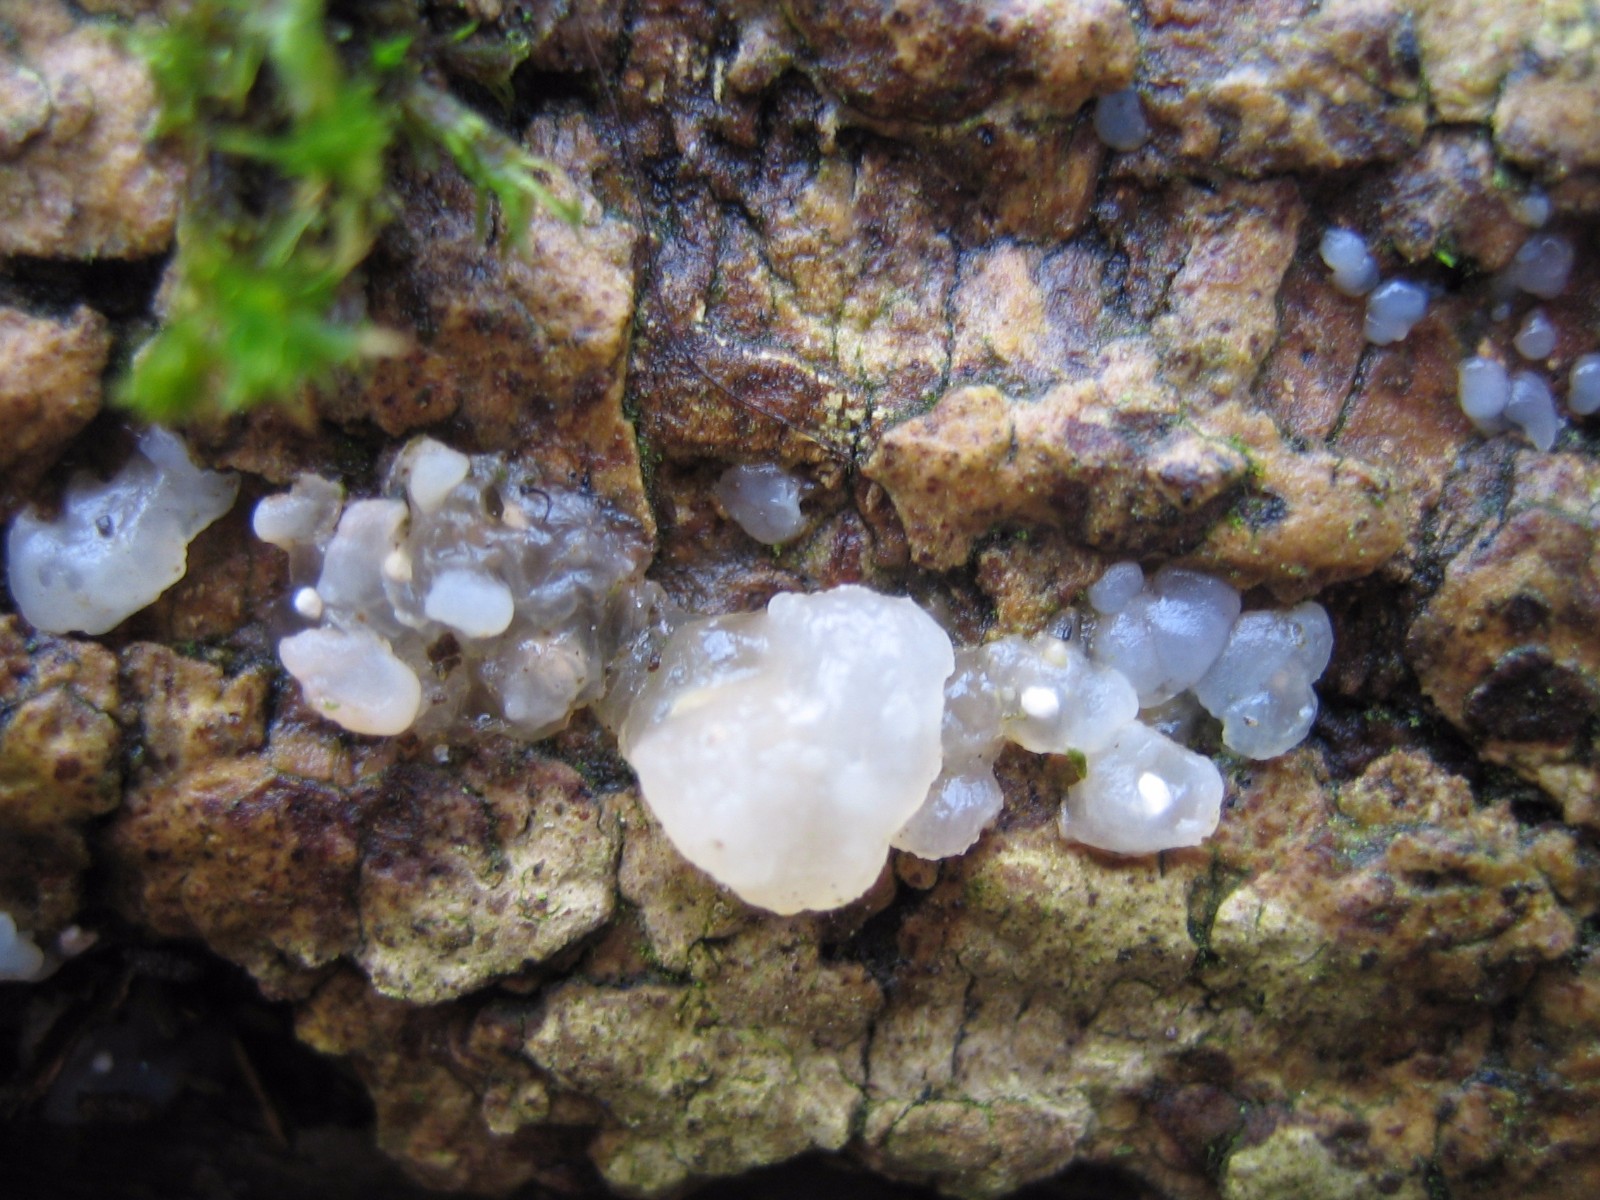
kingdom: Fungi
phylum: Basidiomycota
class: Agaricomycetes
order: Auriculariales
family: Hyaloriaceae
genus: Myxarium
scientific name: Myxarium nucleatum
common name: klar bævretop
